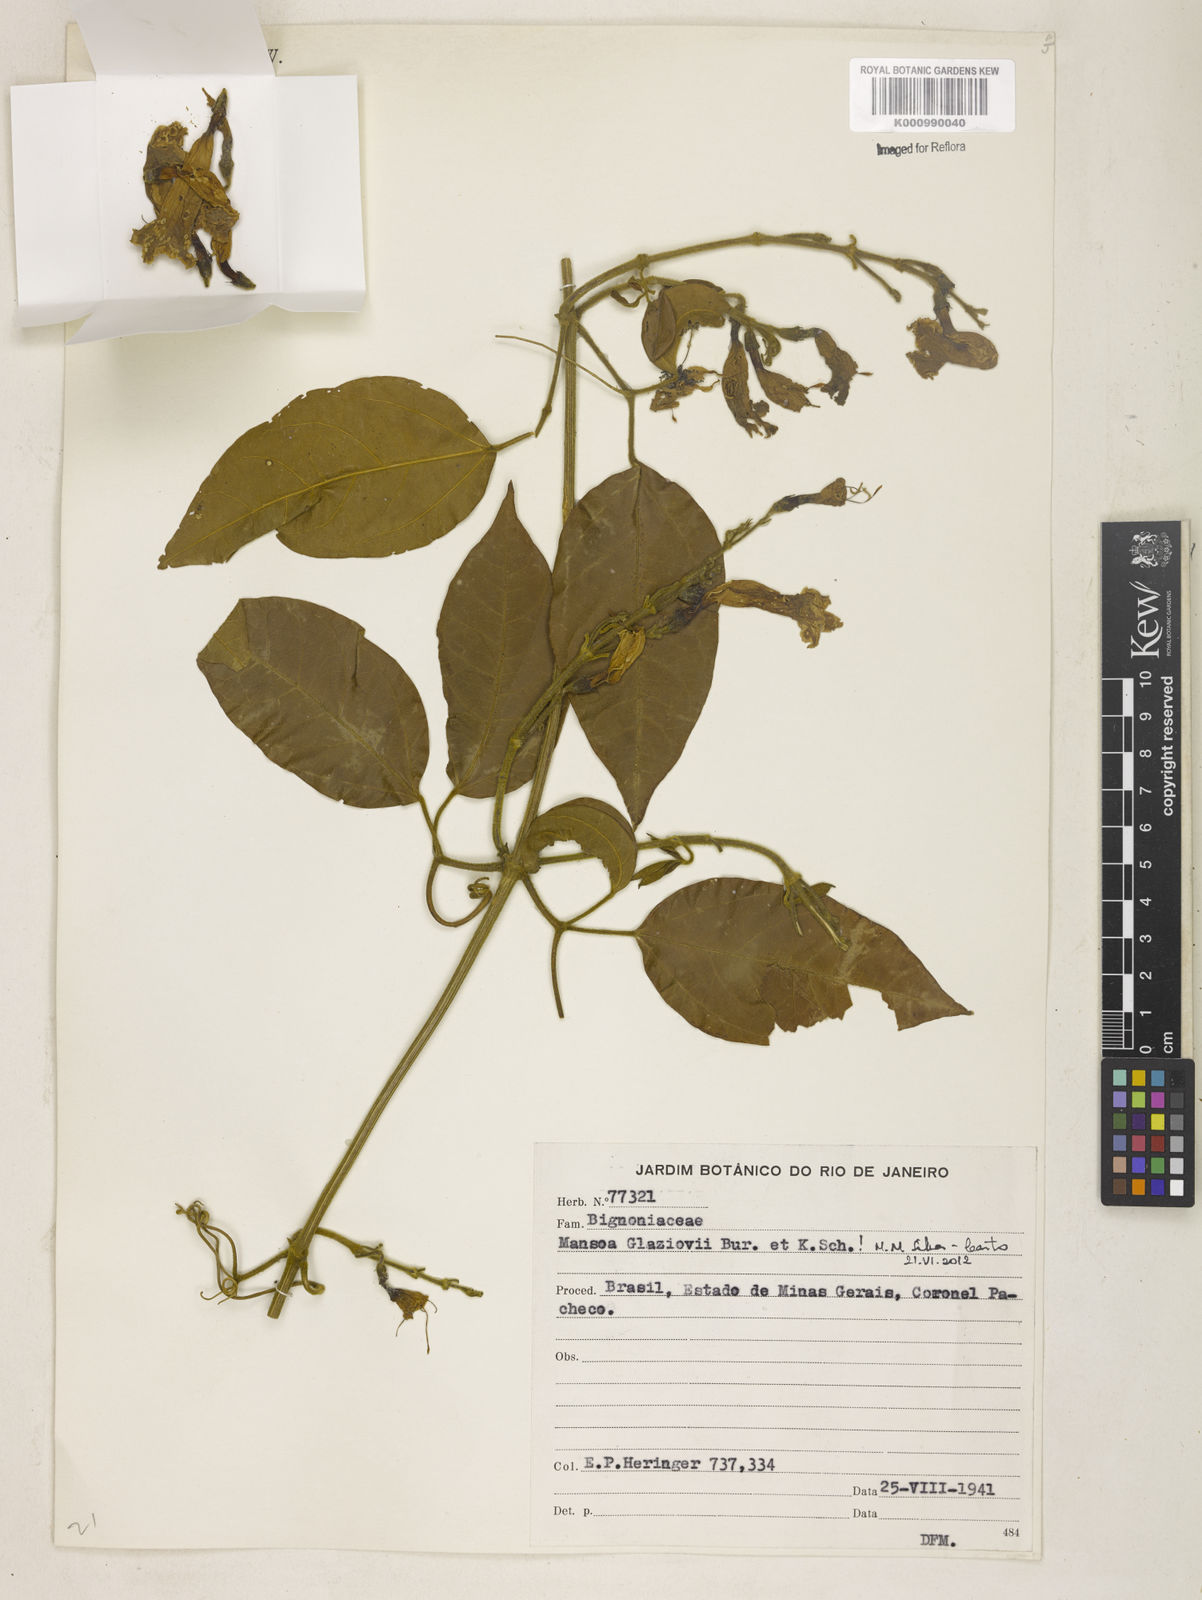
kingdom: Plantae
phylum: Tracheophyta
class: Magnoliopsida
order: Lamiales
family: Bignoniaceae
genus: Mansoa
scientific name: Mansoa glaziovii
